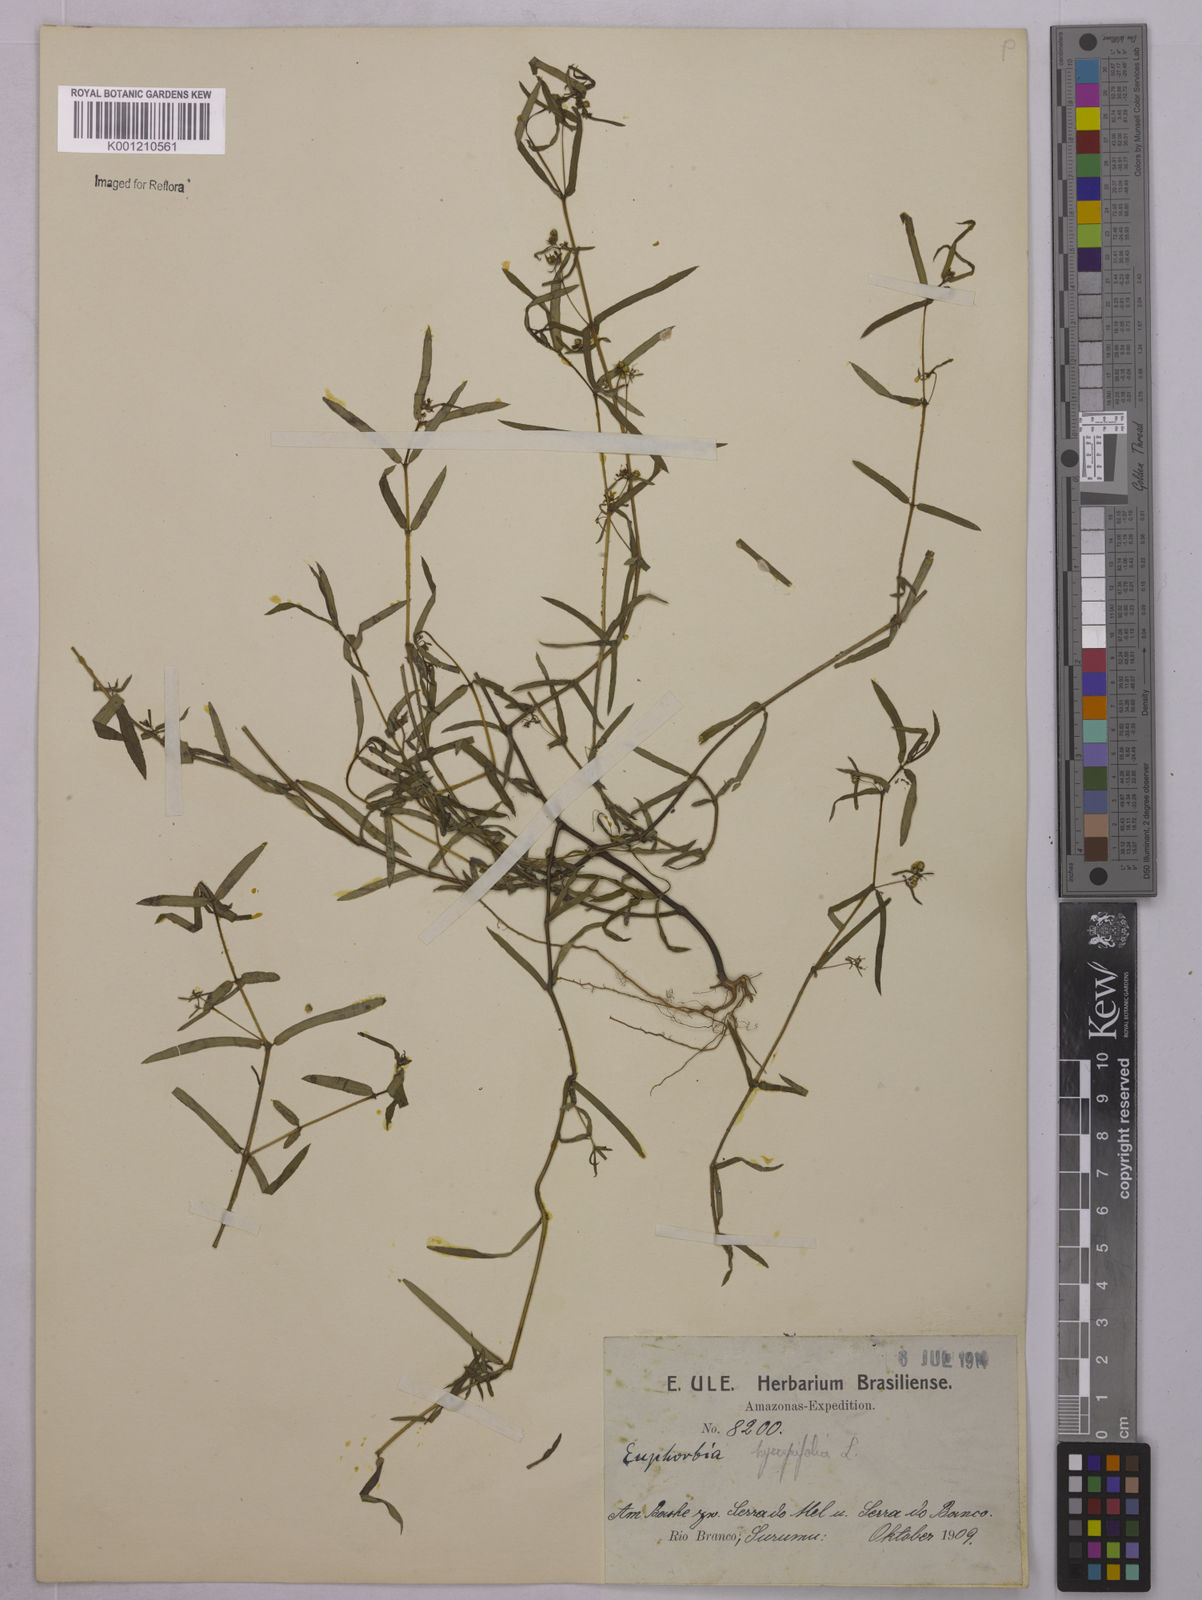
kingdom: Plantae
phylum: Tracheophyta
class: Magnoliopsida
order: Malpighiales
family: Euphorbiaceae
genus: Euphorbia
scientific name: Euphorbia hyssopifolia
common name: Hyssopleaf sandmat
